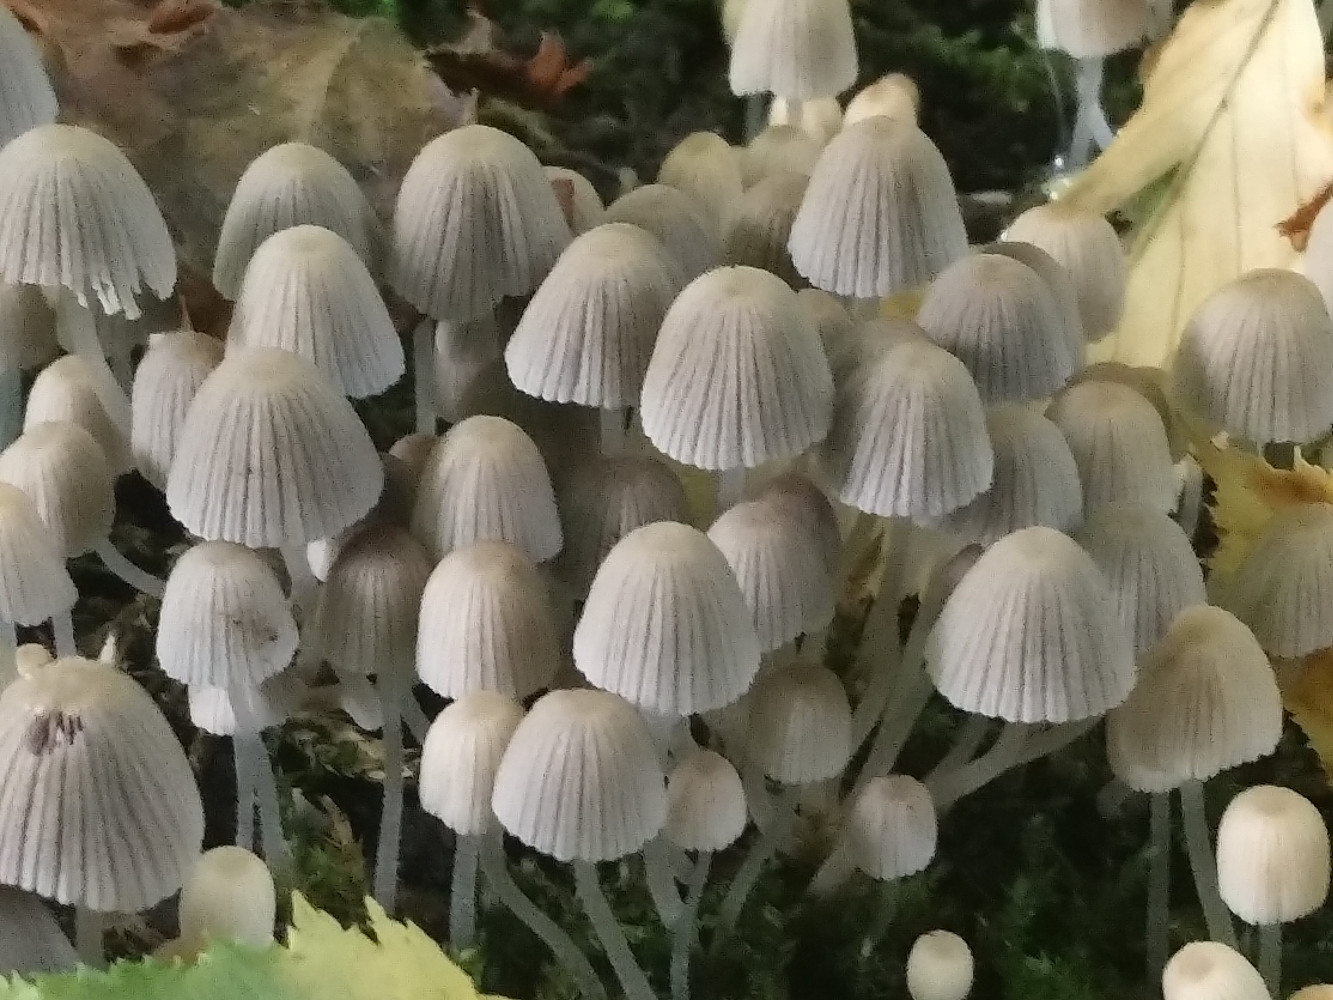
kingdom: Fungi
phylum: Basidiomycota
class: Agaricomycetes
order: Agaricales
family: Psathyrellaceae
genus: Coprinellus
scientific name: Coprinellus disseminatus
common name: bredsået blækhat
